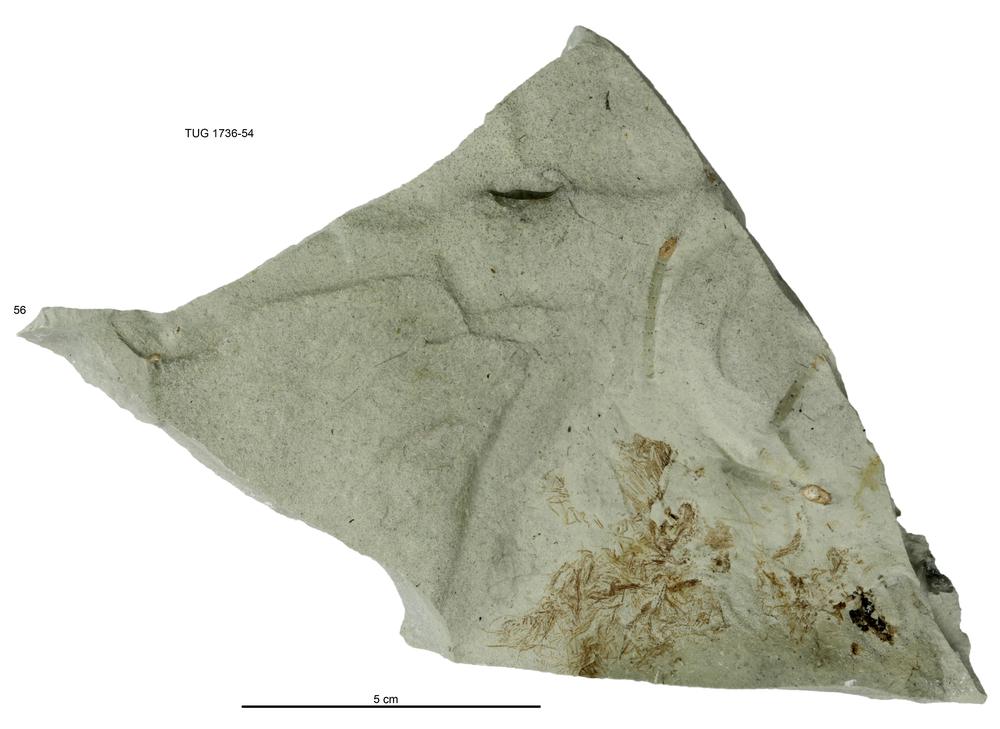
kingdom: Animalia
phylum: Echinodermata
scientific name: Echinodermata
